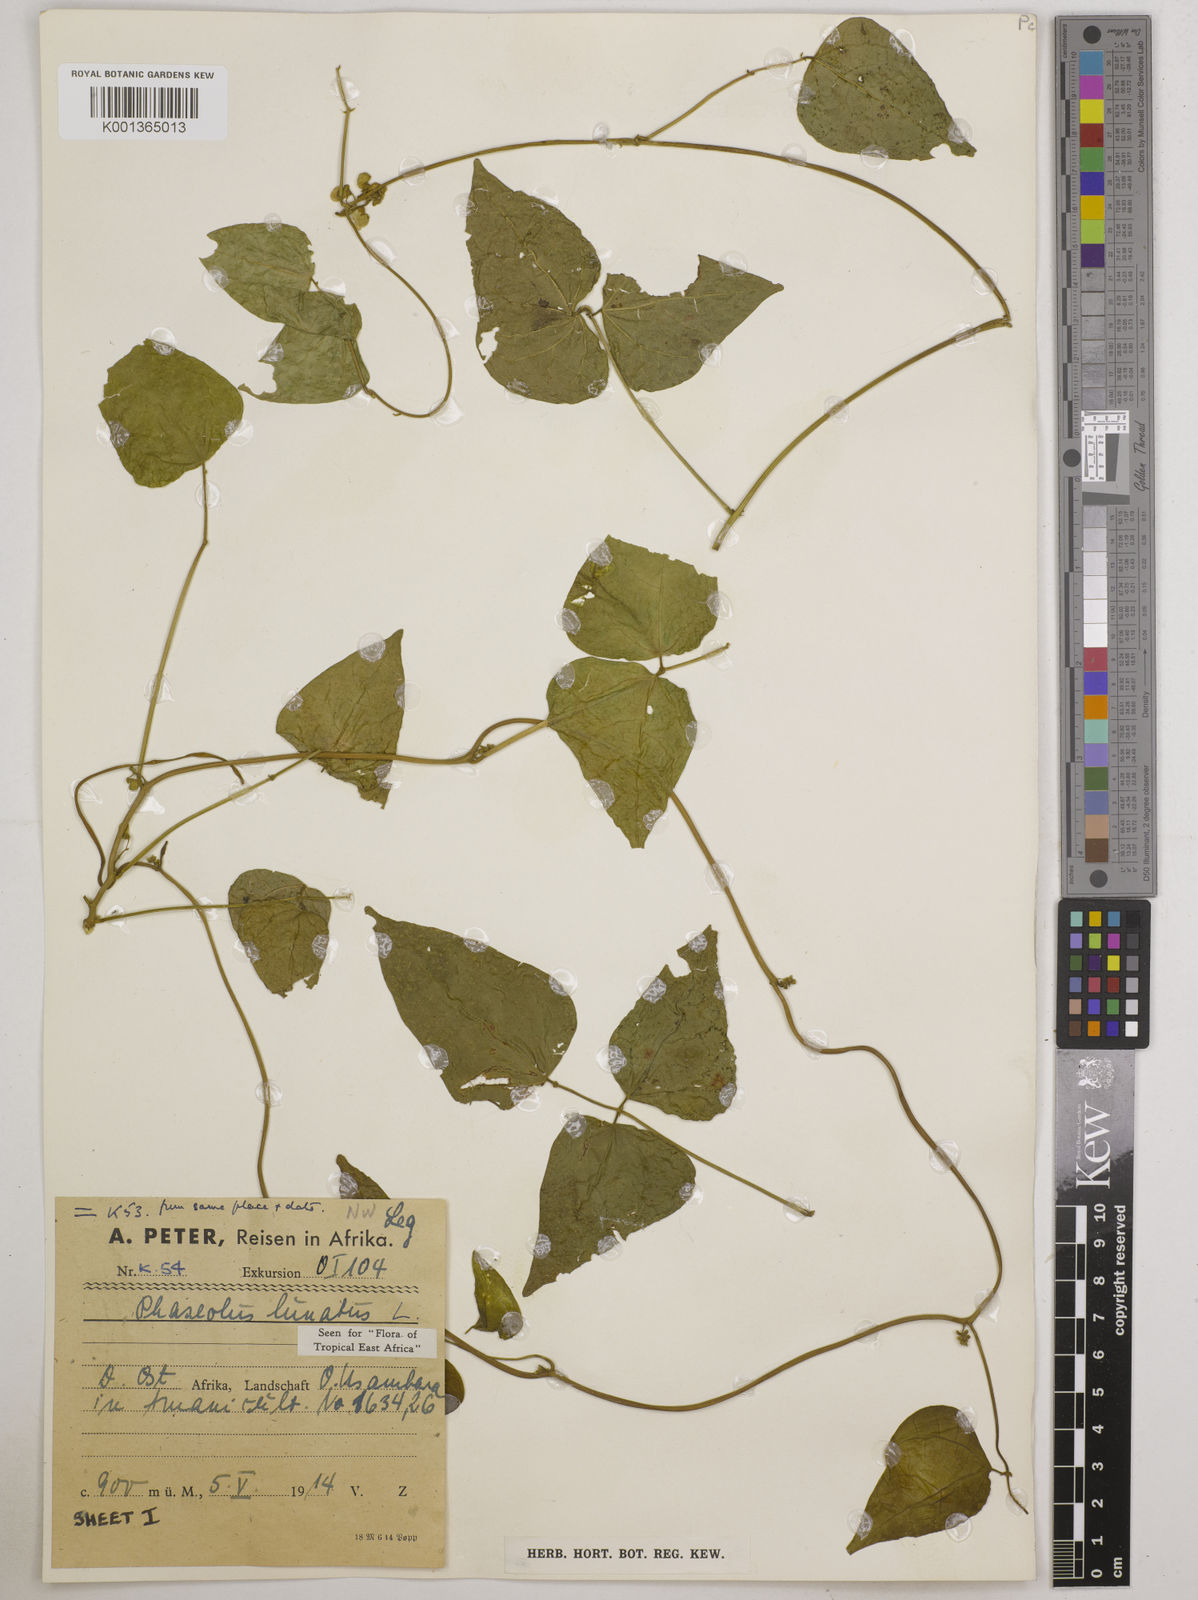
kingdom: Plantae
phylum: Tracheophyta
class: Magnoliopsida
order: Fabales
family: Fabaceae
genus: Phaseolus
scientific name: Phaseolus lunatus
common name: Sieva bean
